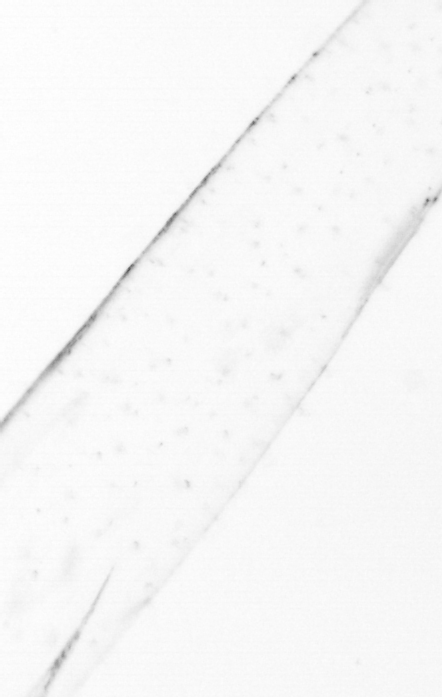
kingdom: Animalia
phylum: Chaetognatha
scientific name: Chaetognatha
